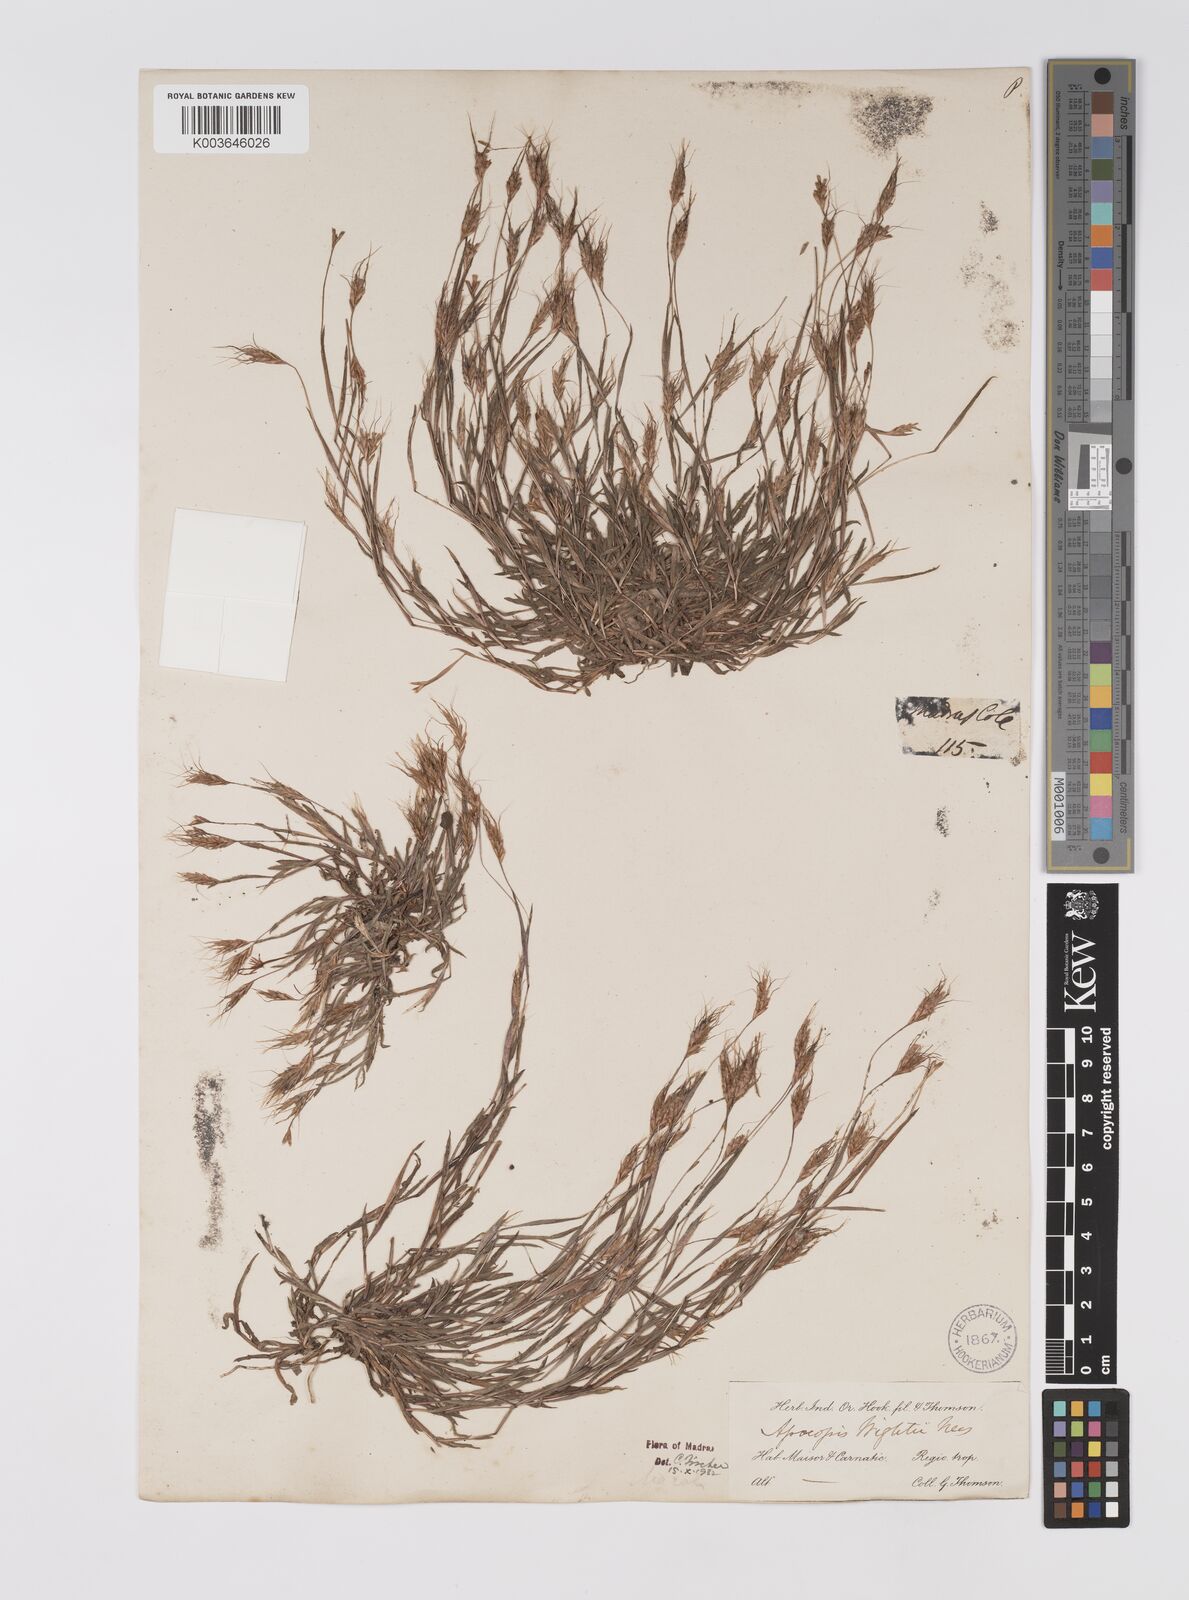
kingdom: Plantae
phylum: Tracheophyta
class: Liliopsida
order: Poales
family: Poaceae
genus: Apocopis
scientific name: Apocopis mangalorensis
